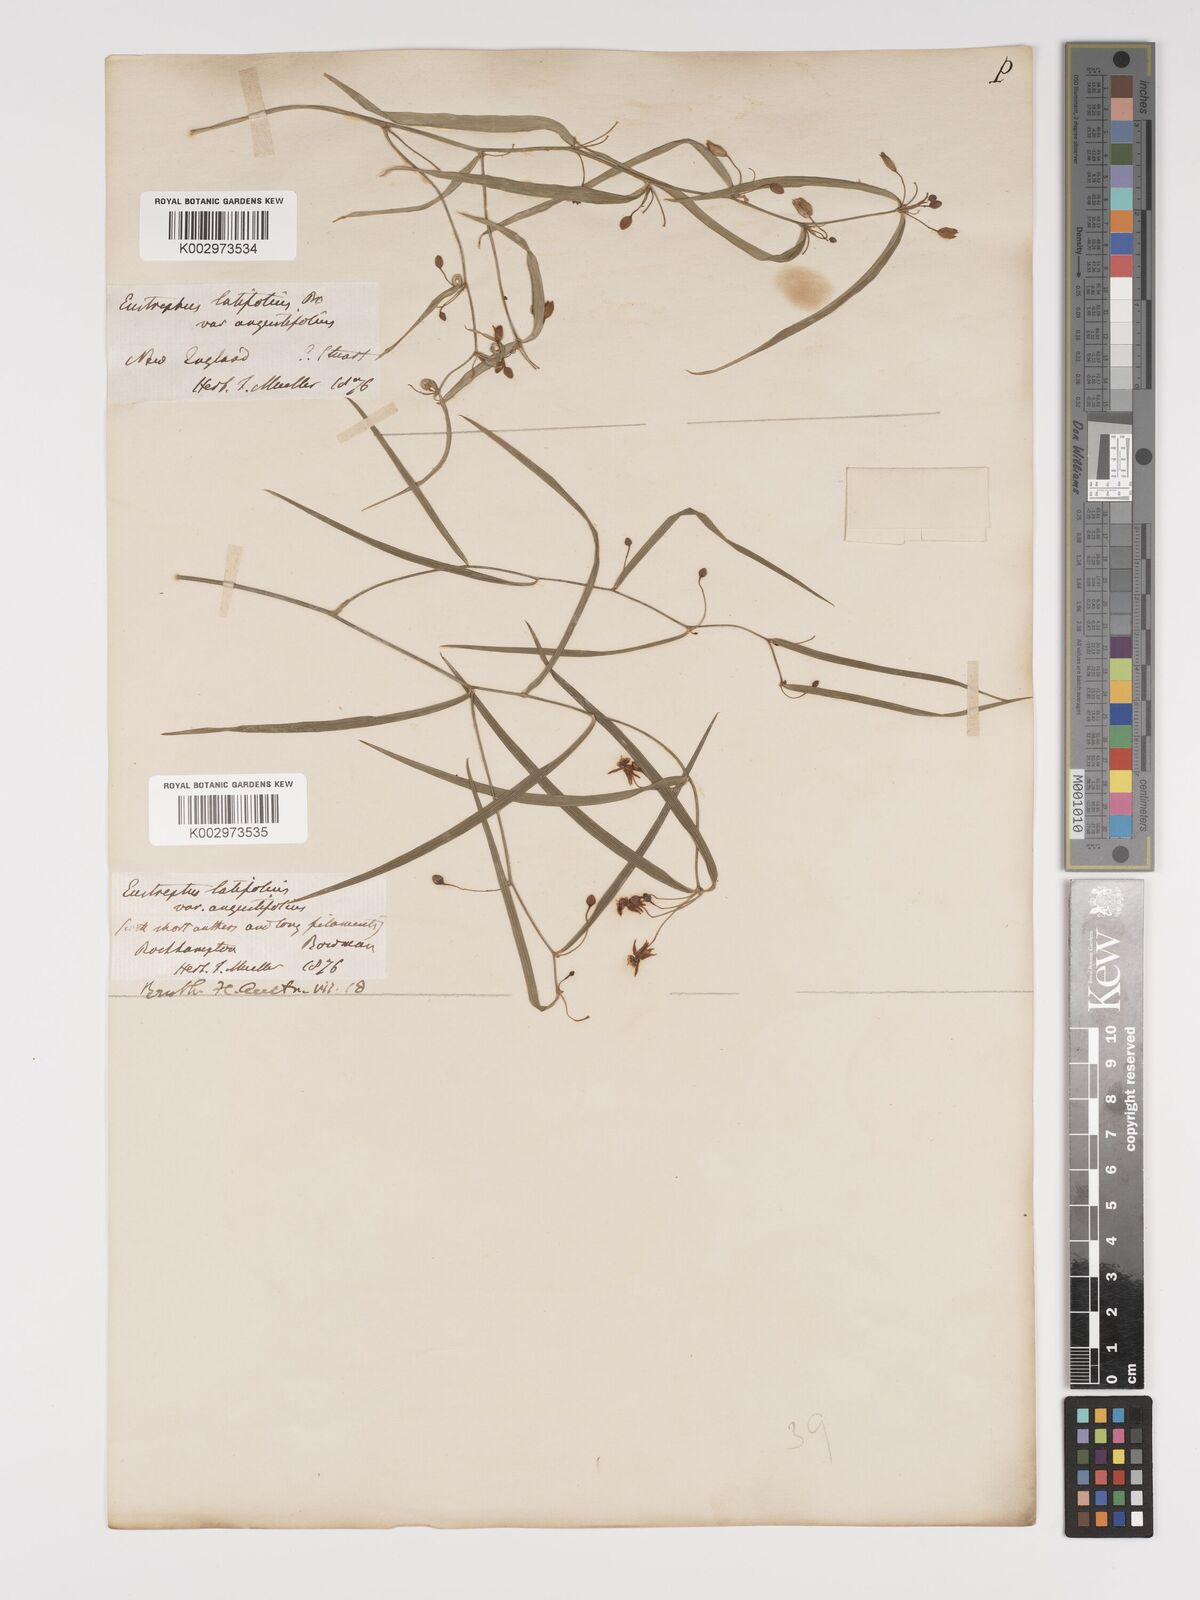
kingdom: Plantae
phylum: Tracheophyta
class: Liliopsida
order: Asparagales
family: Asparagaceae
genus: Eustrephus
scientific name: Eustrephus latifolius
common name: Orangevine
